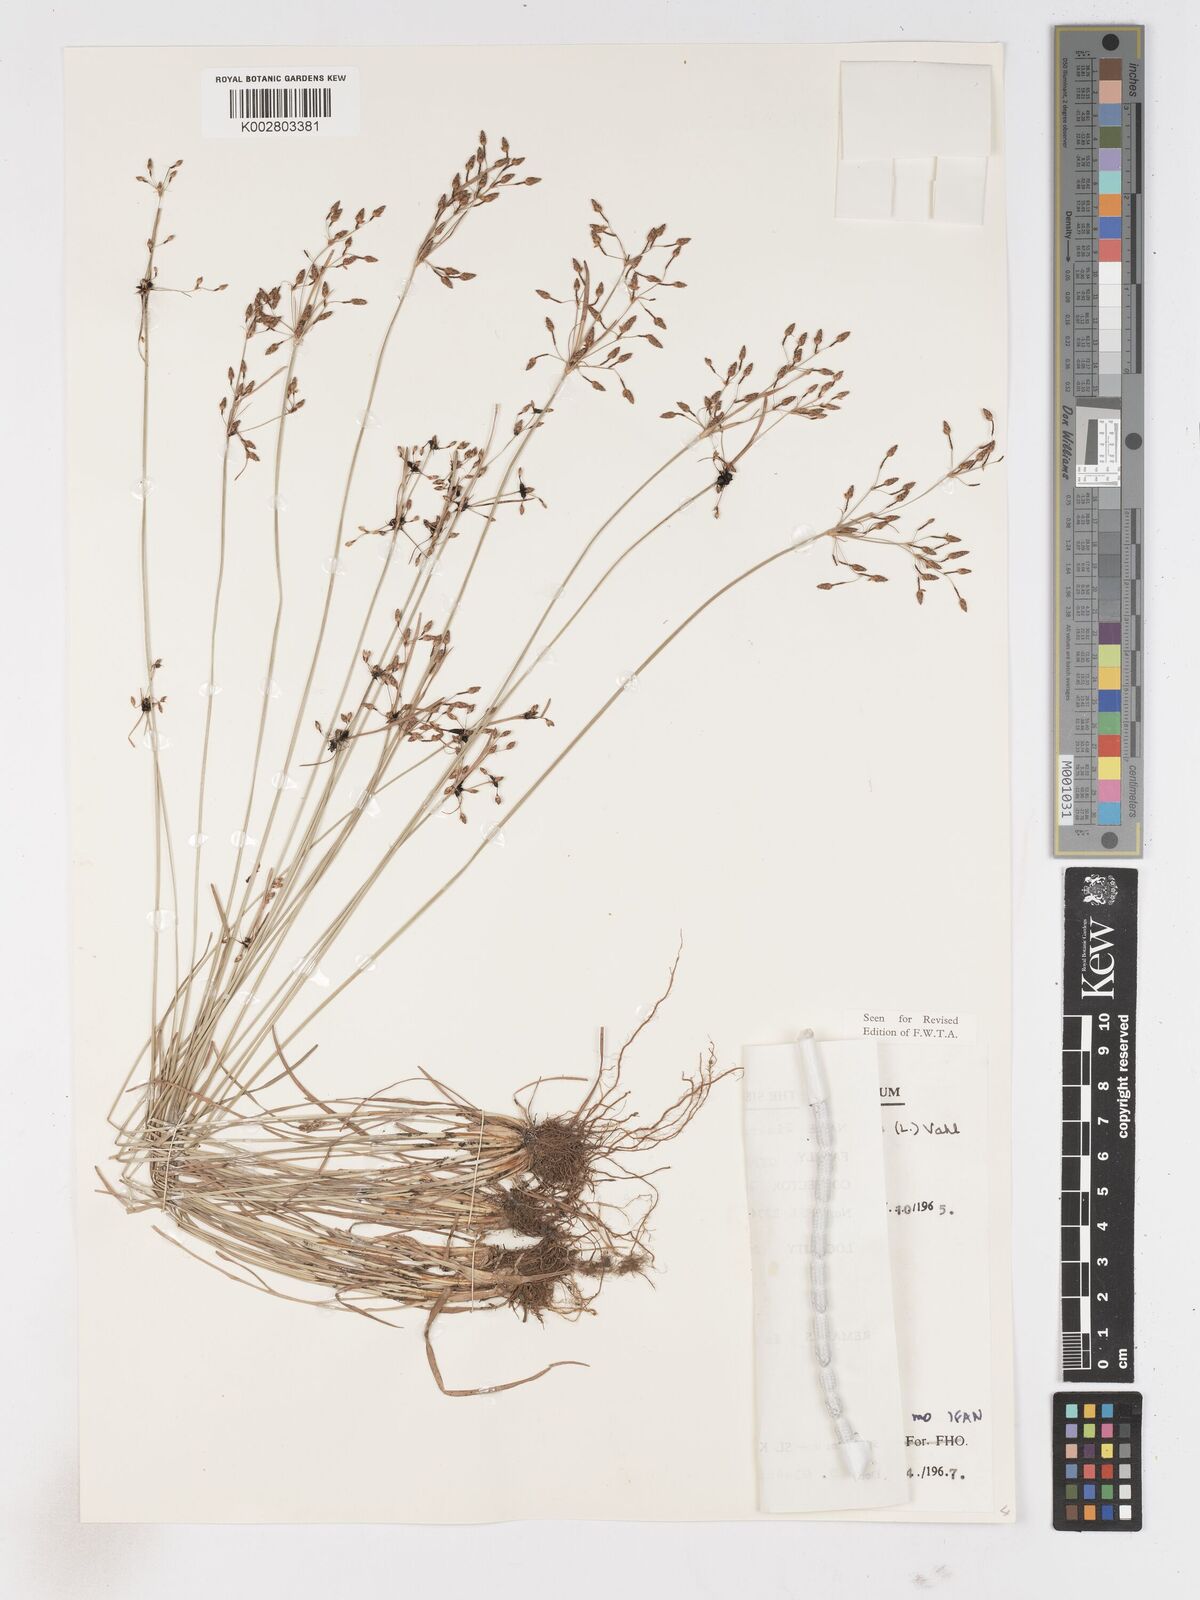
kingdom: Plantae
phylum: Tracheophyta
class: Liliopsida
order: Poales
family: Cyperaceae
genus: Fimbristylis
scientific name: Fimbristylis dichotoma
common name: Forked fimbry
